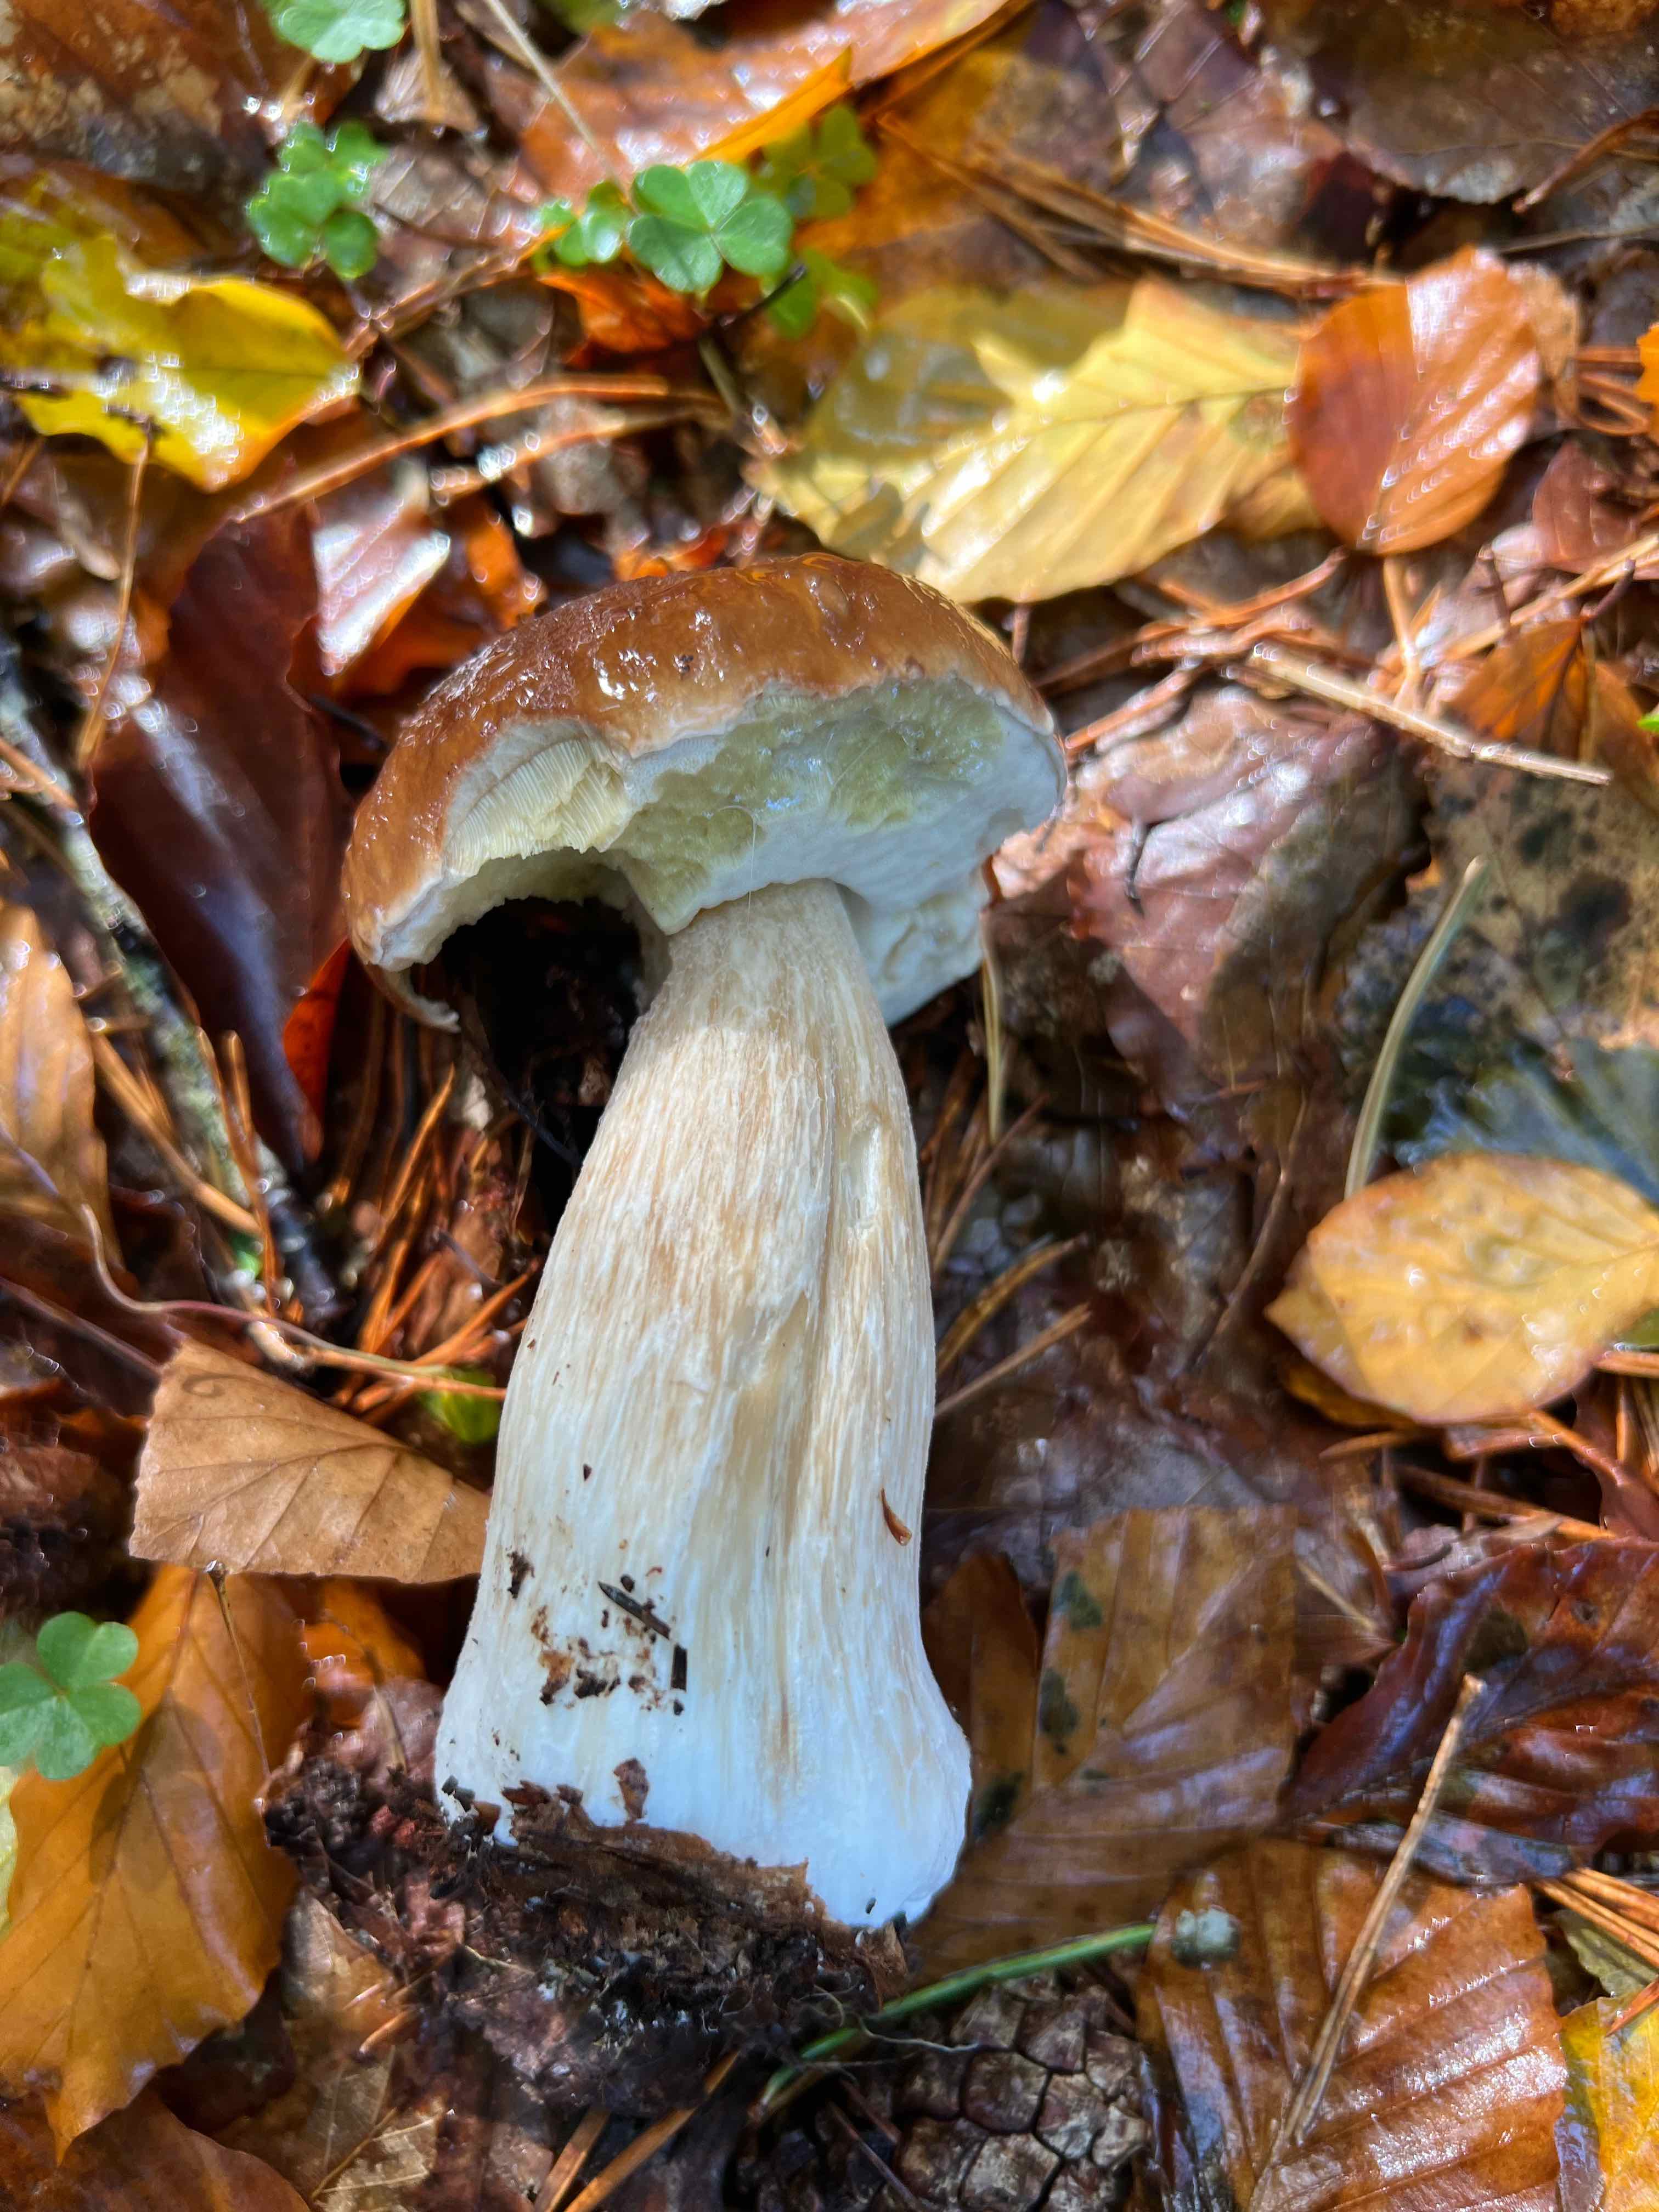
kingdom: Fungi
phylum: Basidiomycota
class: Agaricomycetes
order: Boletales
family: Boletaceae
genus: Boletus
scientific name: Boletus edulis
